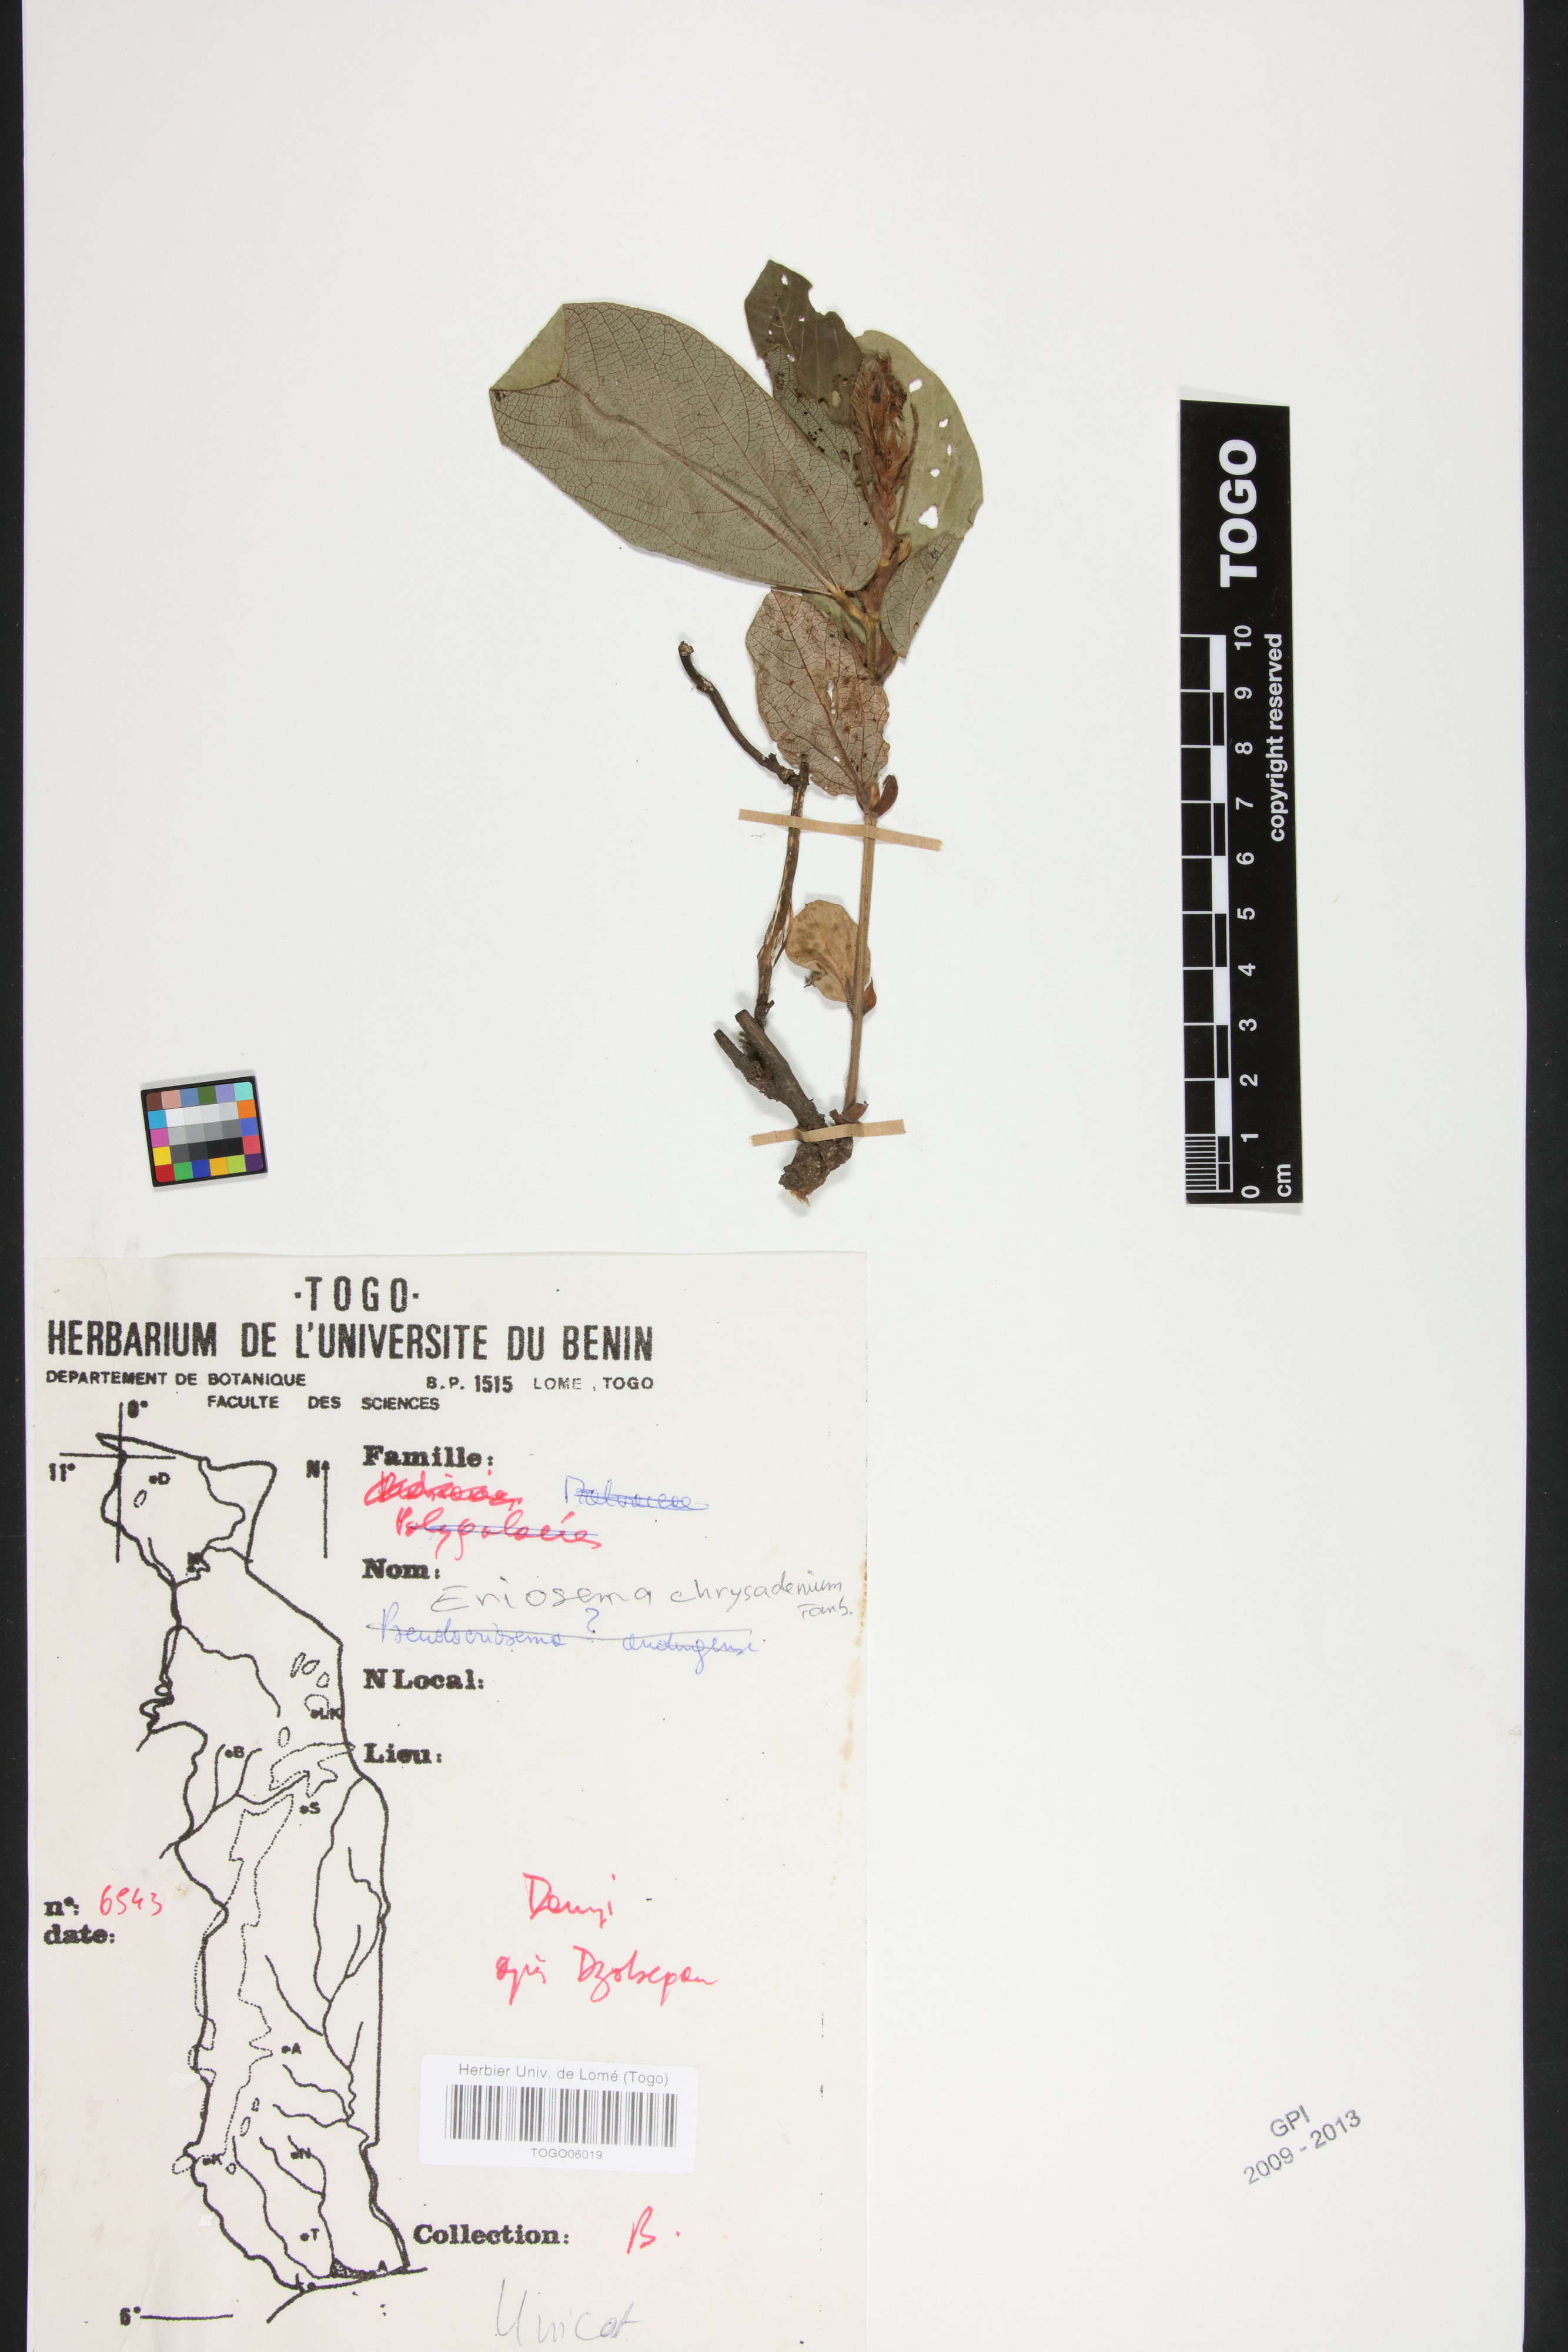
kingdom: Plantae
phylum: Tracheophyta
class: Magnoliopsida
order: Fabales
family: Fabaceae
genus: Eriosema
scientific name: Eriosema chrysadenium
